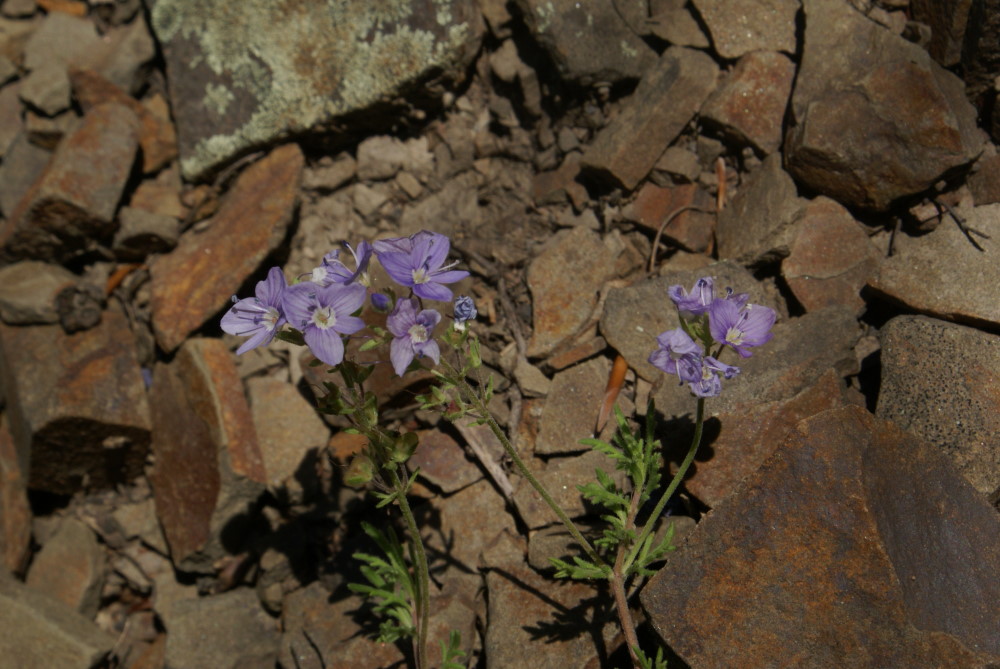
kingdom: Plantae
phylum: Tracheophyta
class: Magnoliopsida
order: Lamiales
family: Plantaginaceae
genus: Veronica
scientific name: Veronica taurica
